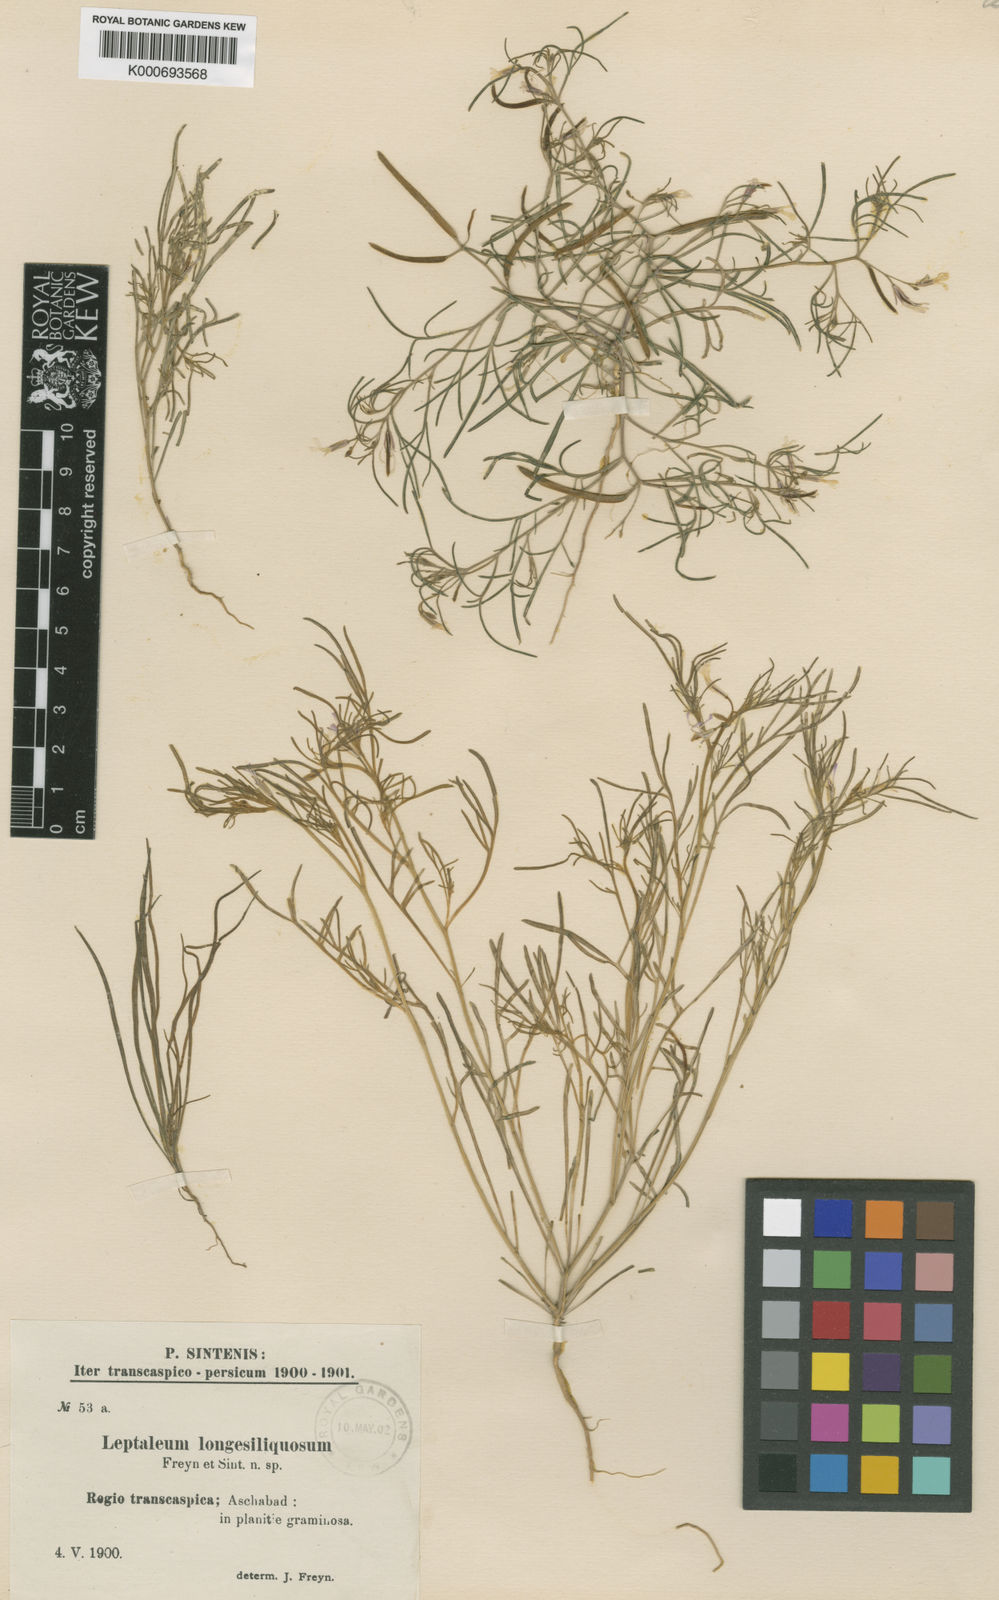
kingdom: Plantae
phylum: Tracheophyta
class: Magnoliopsida
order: Brassicales
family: Brassicaceae
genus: Leptaleum
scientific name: Leptaleum filifolium
